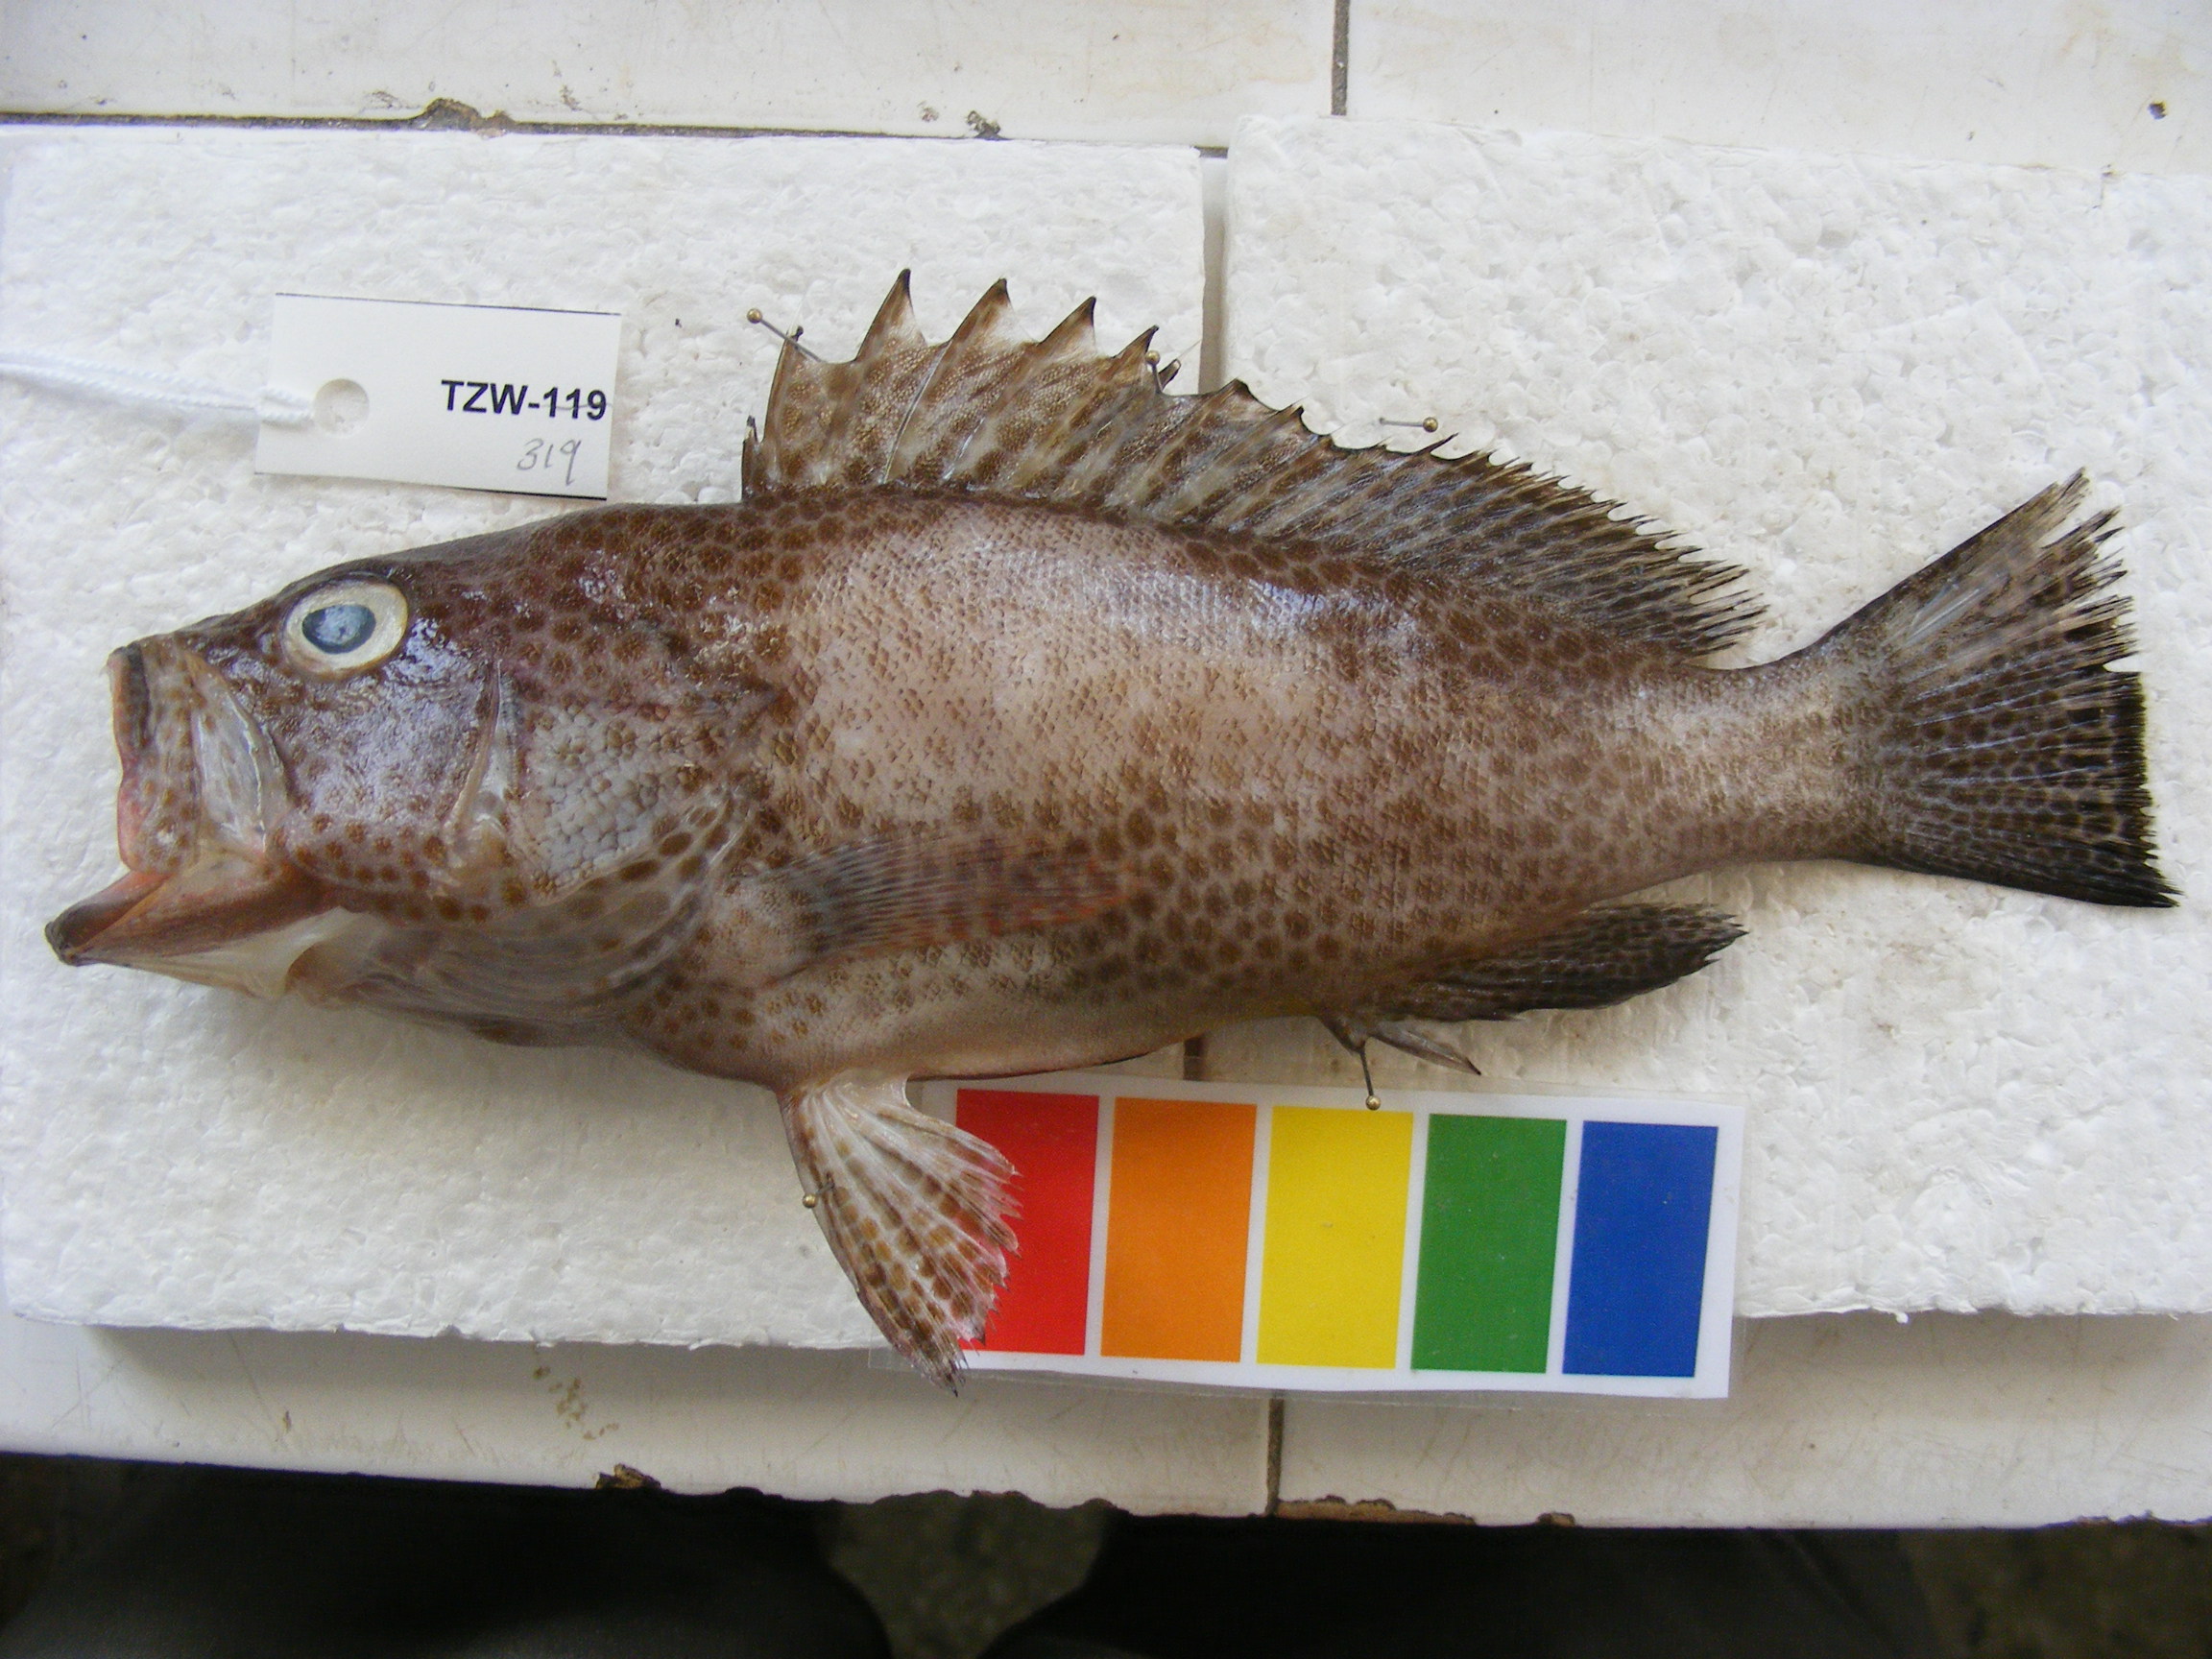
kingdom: Animalia
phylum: Chordata
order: Perciformes
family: Serranidae
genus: Epinephelus
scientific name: Epinephelus chlorostigma
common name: Brownspotted grouper
